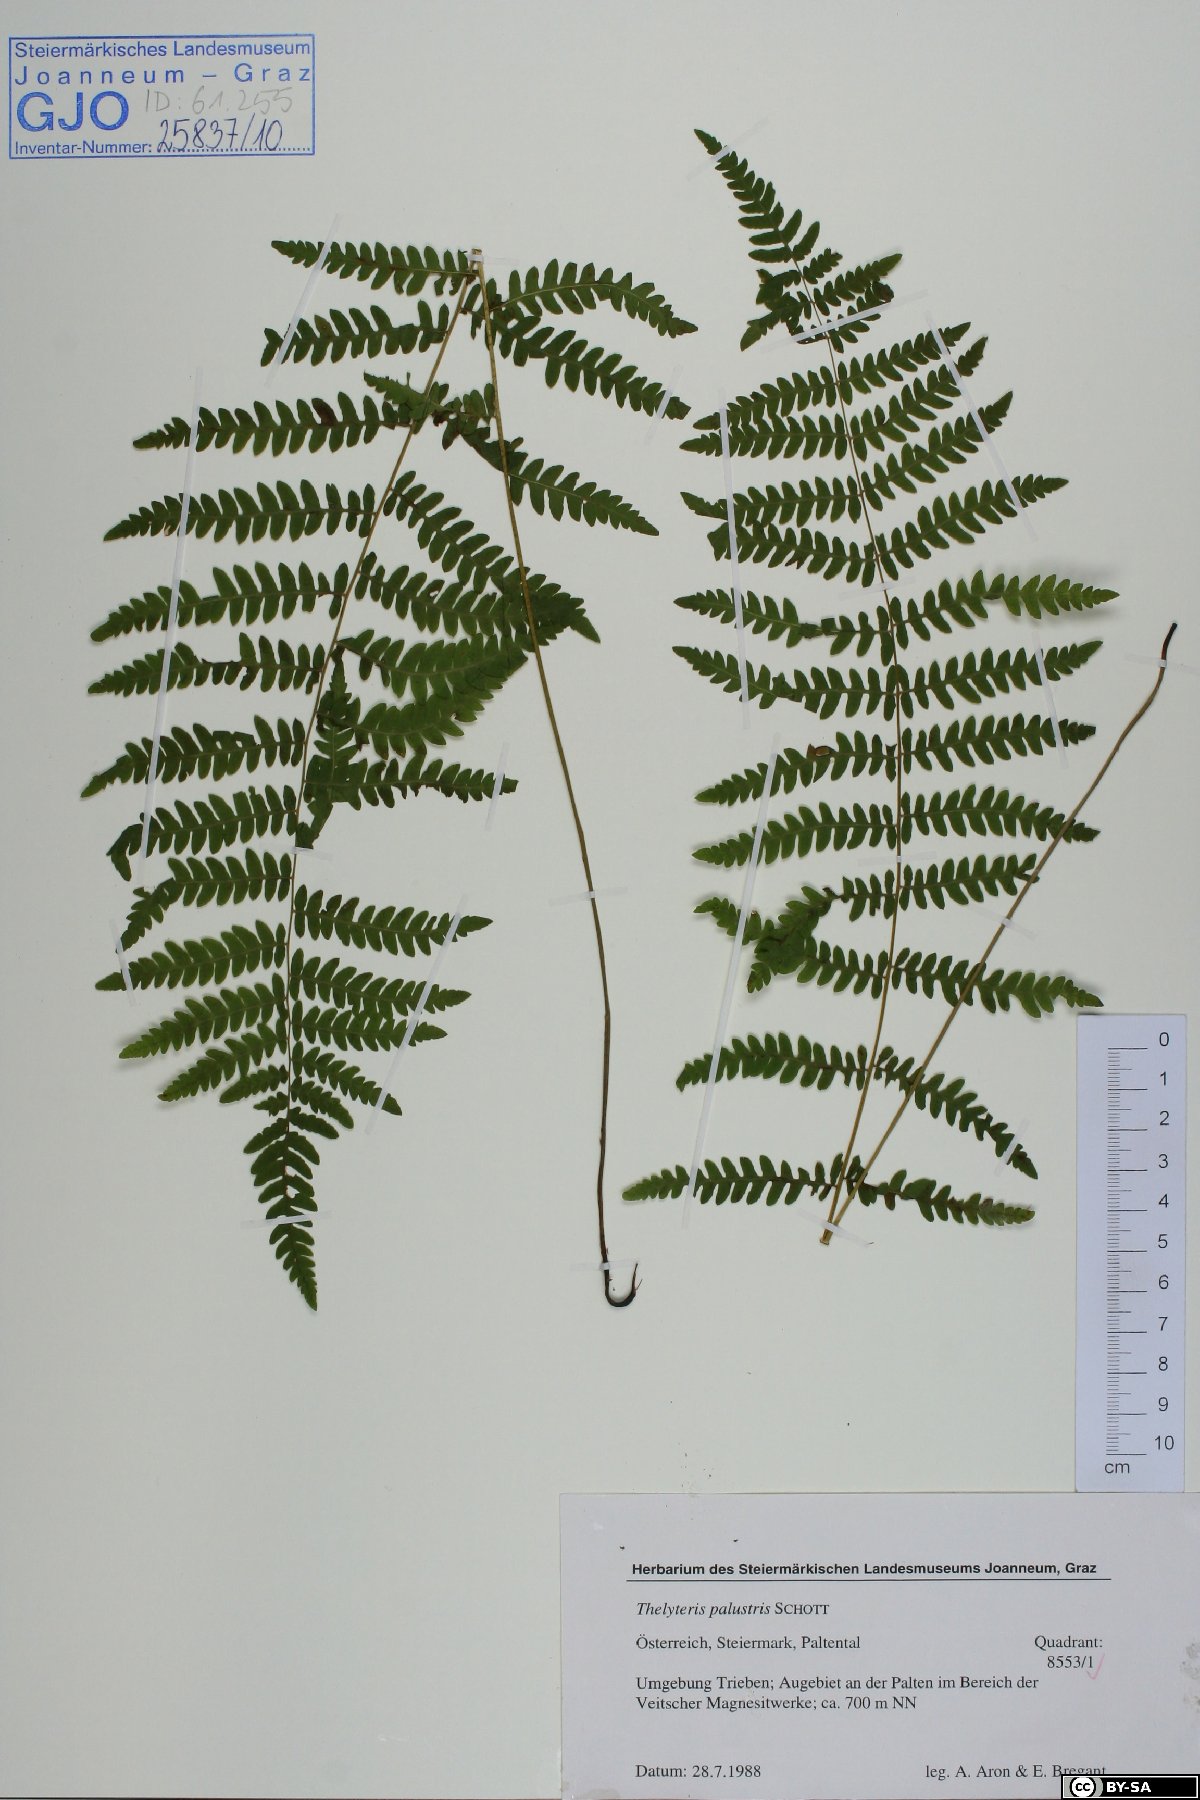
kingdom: Plantae
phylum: Tracheophyta
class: Polypodiopsida
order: Polypodiales
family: Thelypteridaceae
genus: Thelypteris
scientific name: Thelypteris palustris
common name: Marsh fern
